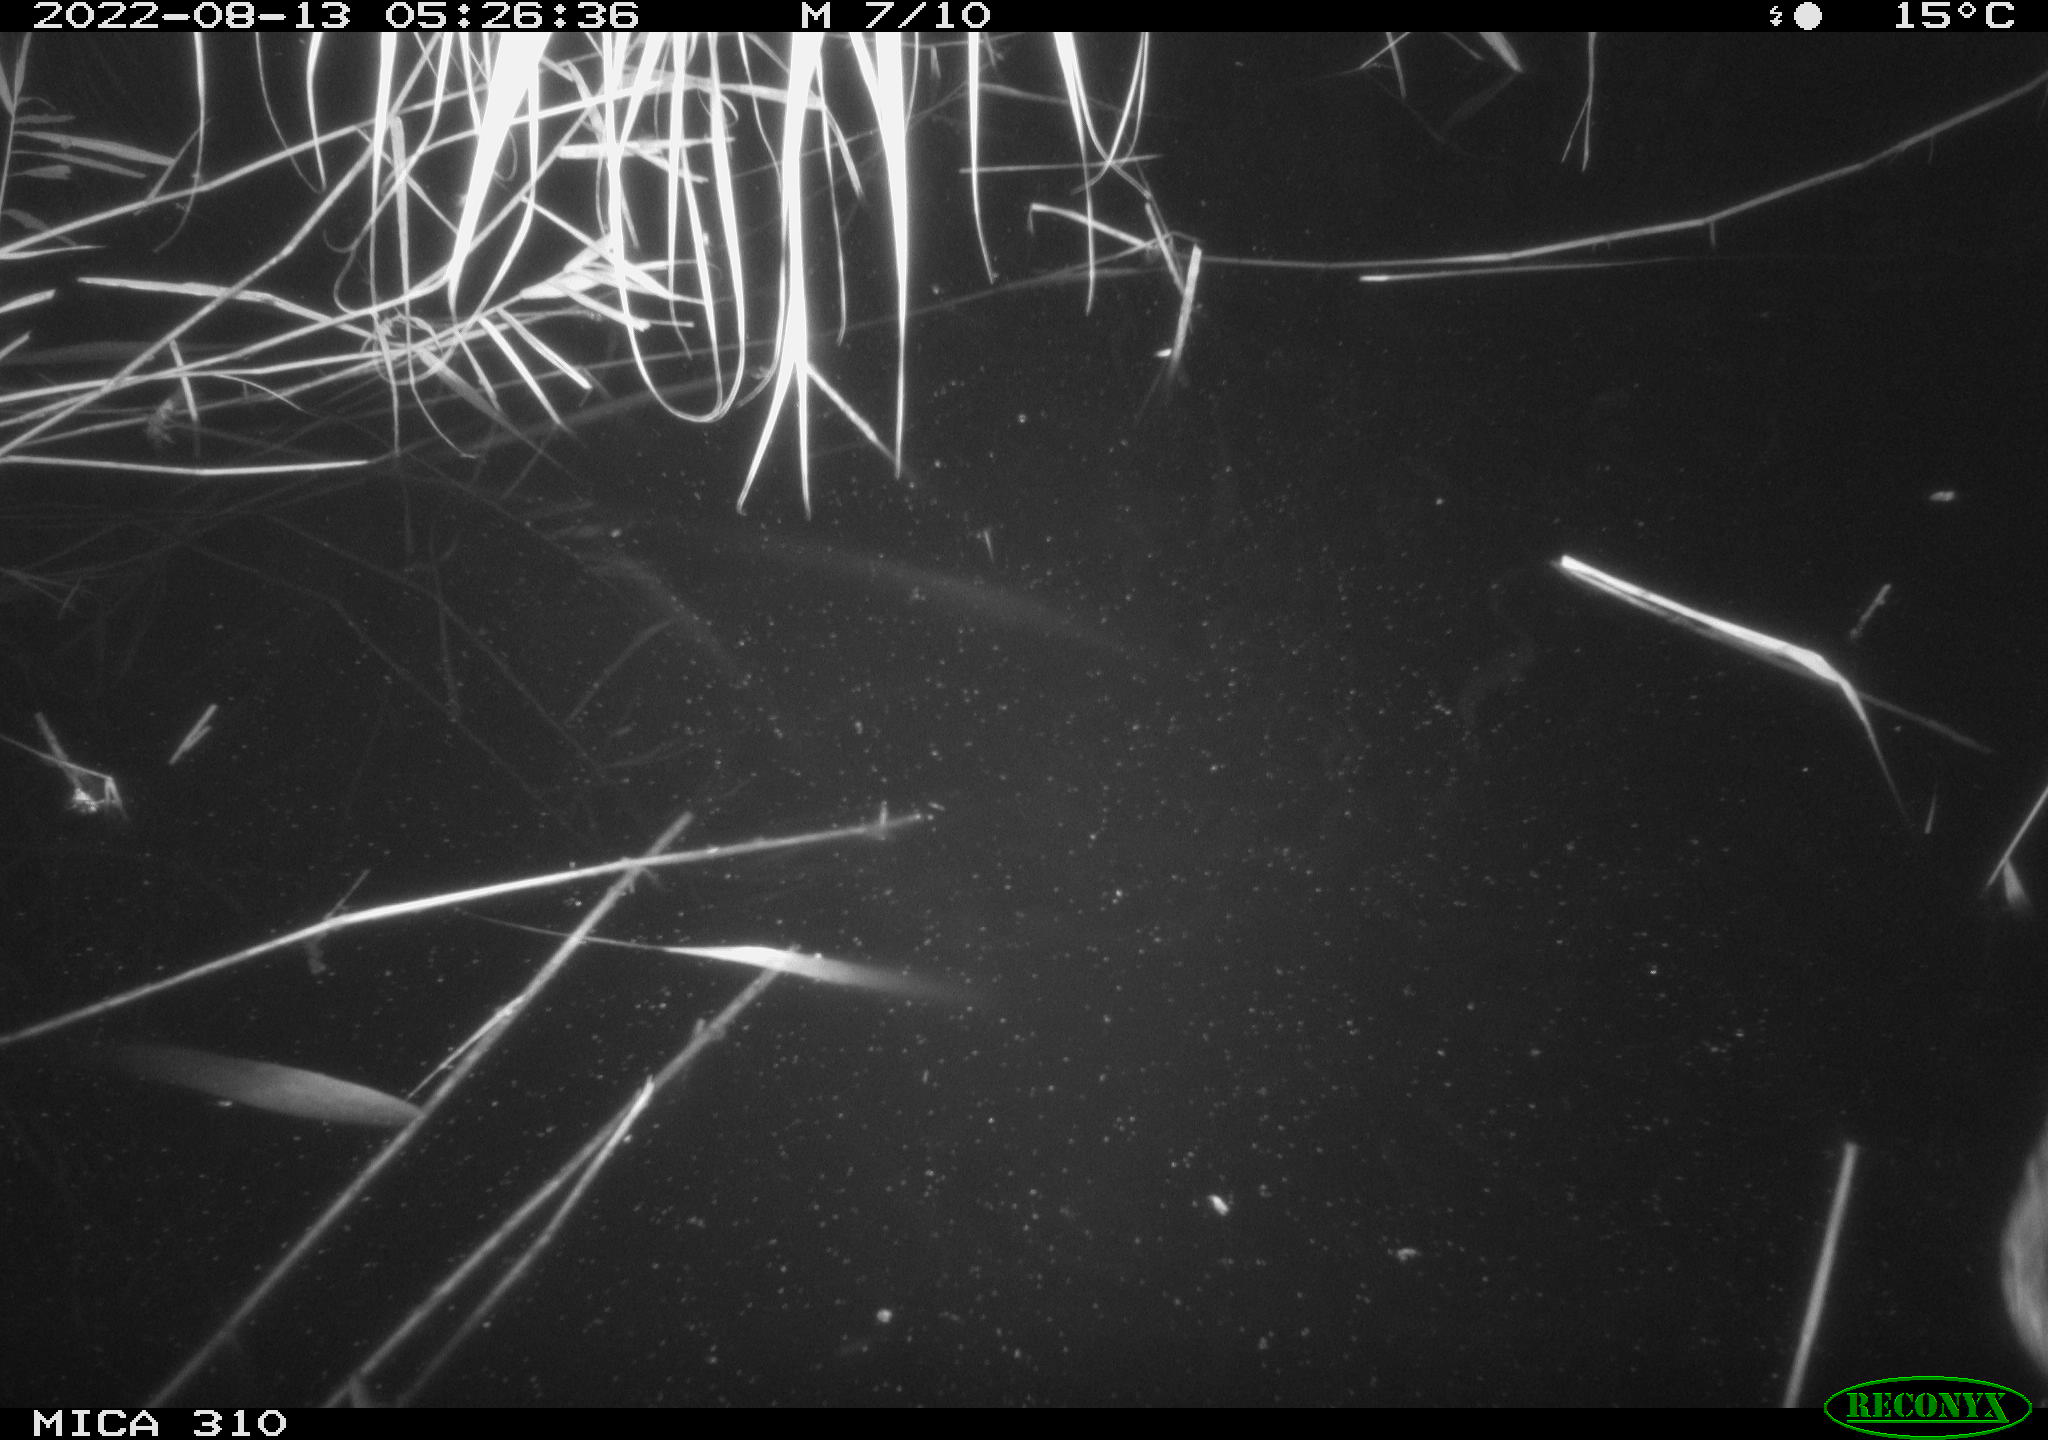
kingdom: Animalia
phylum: Chordata
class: Aves
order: Anseriformes
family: Anatidae
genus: Anas
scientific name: Anas platyrhynchos
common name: Mallard
